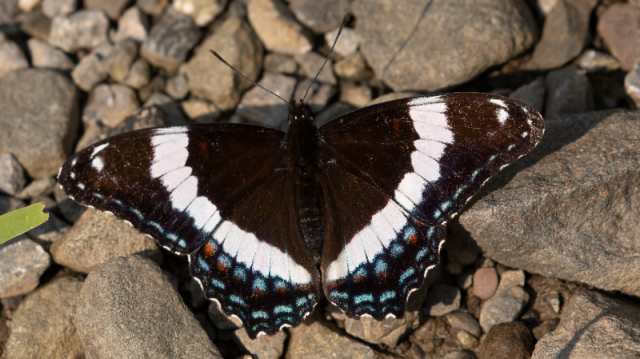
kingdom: Animalia
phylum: Arthropoda
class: Insecta
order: Lepidoptera
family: Nymphalidae
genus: Limenitis
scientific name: Limenitis arthemis
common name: Red-spotted Admiral
